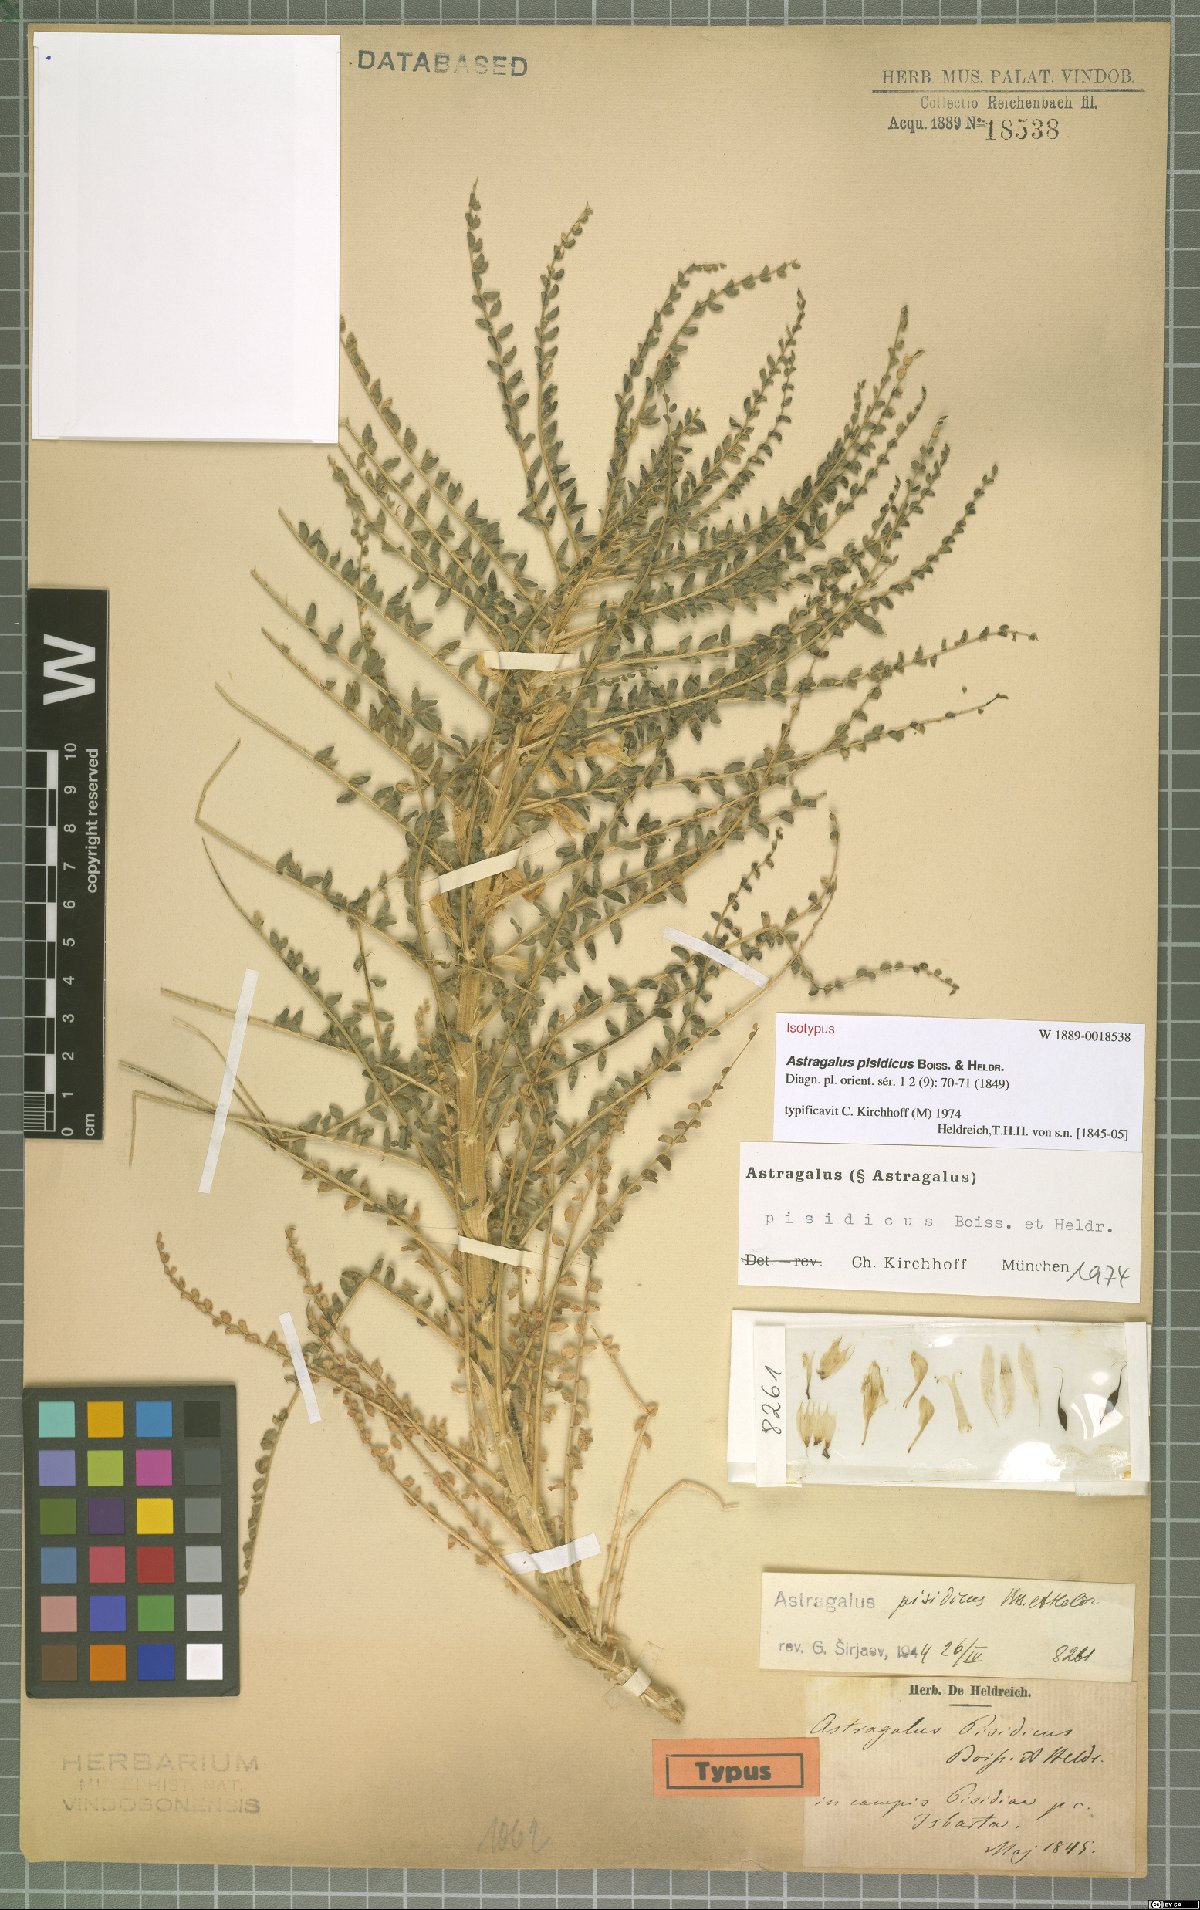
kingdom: Plantae
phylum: Tracheophyta
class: Magnoliopsida
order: Fabales
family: Fabaceae
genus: Astragalus
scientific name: Astragalus pisidicus
